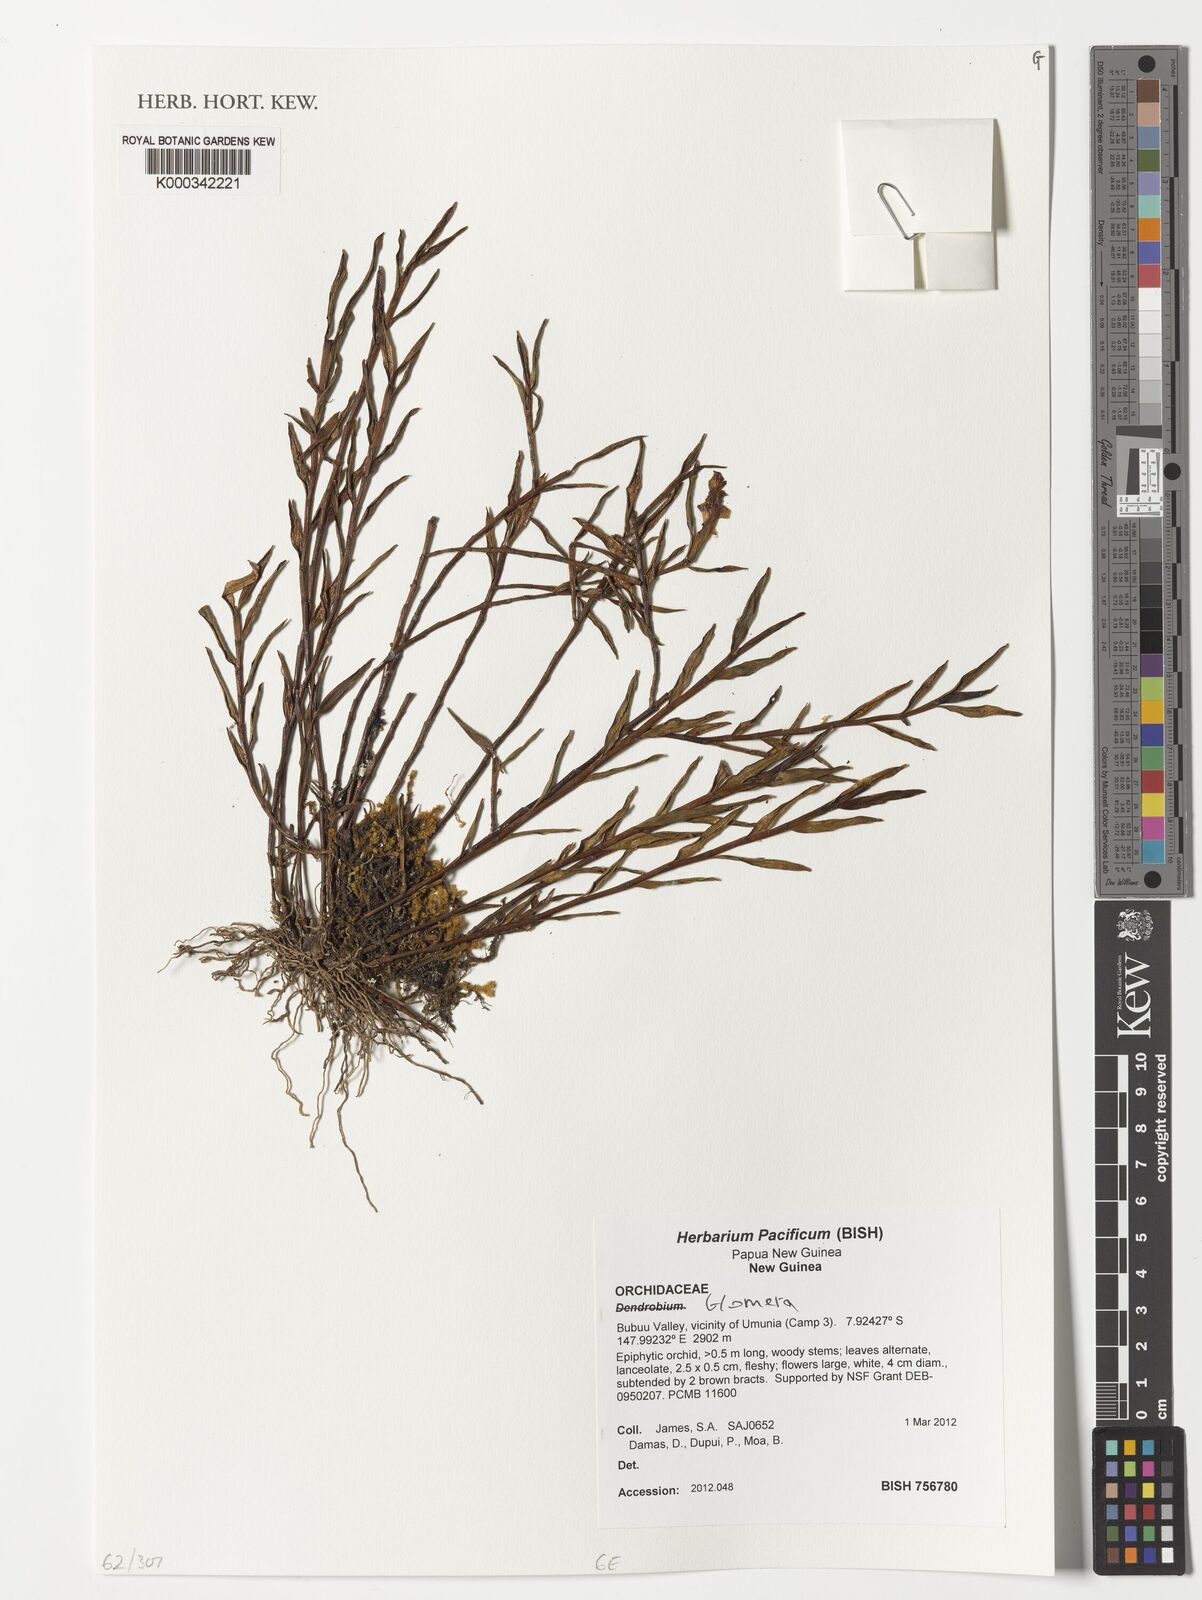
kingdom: Plantae
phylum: Tracheophyta
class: Liliopsida
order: Asparagales
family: Orchidaceae
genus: Glomera
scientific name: Glomera
